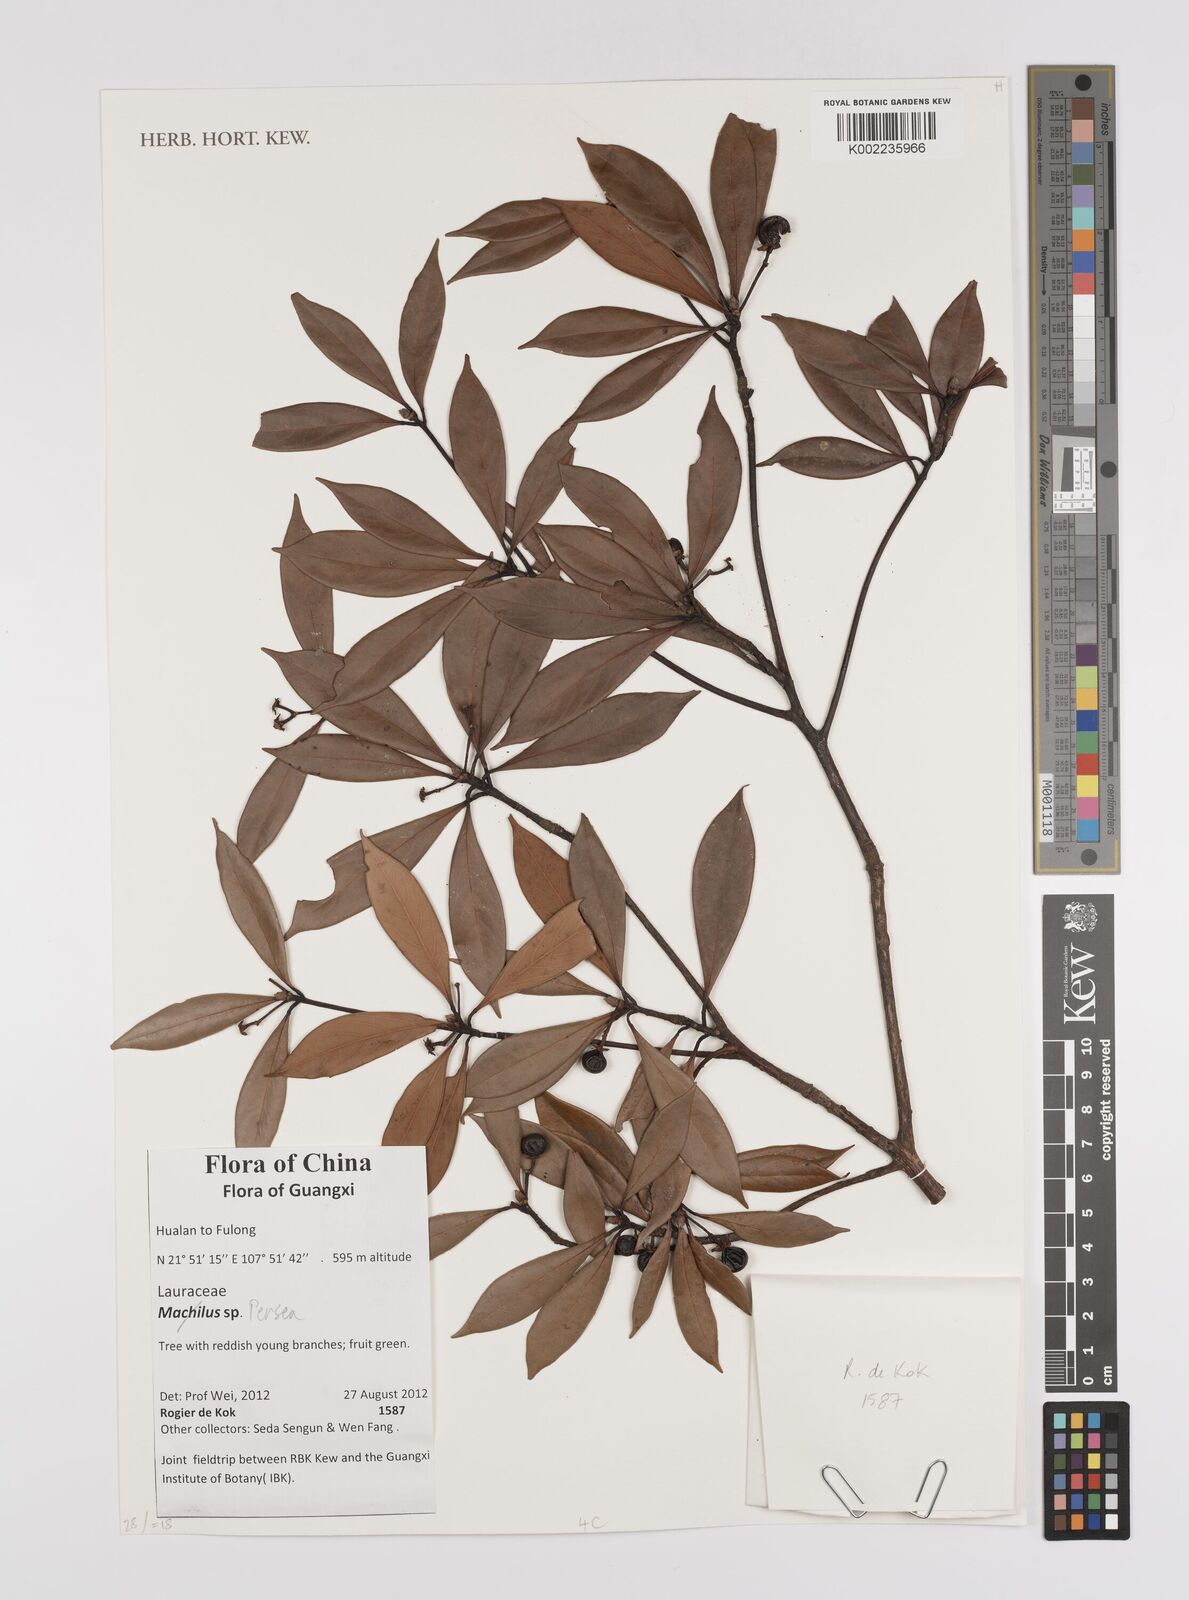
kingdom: Plantae
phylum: Tracheophyta
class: Magnoliopsida
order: Laurales
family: Lauraceae
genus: Persea
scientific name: Persea
